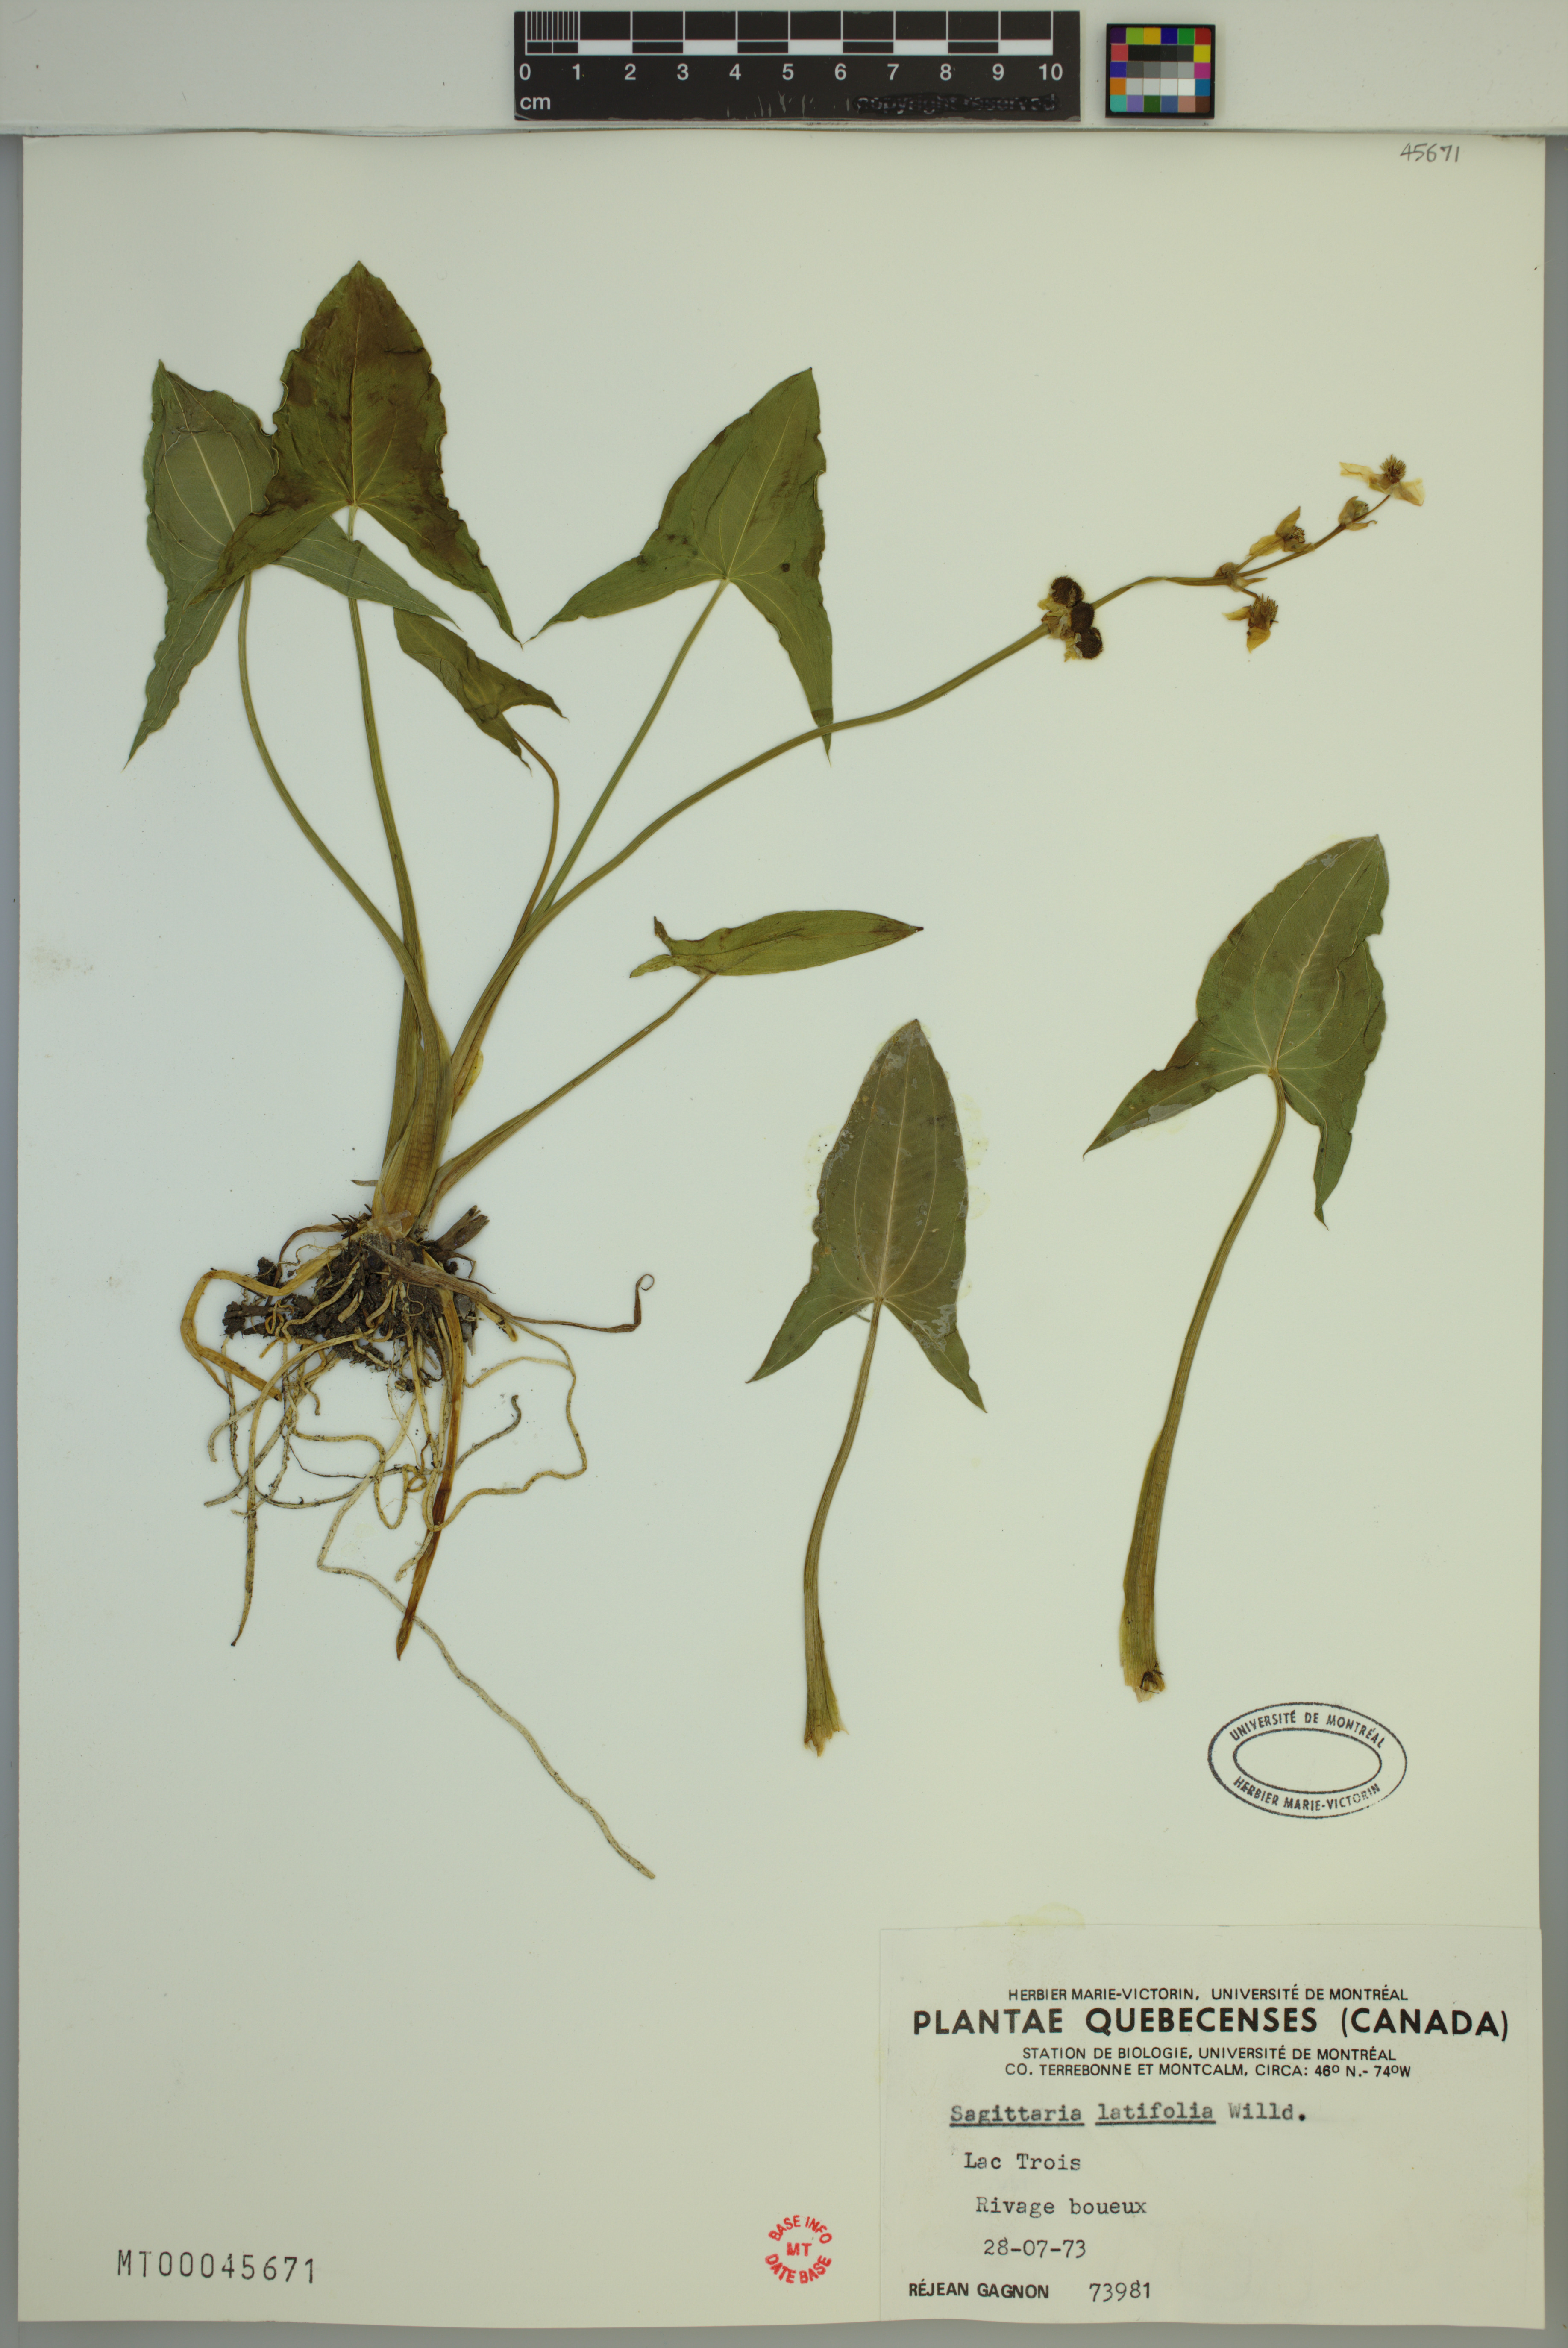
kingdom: Plantae
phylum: Tracheophyta
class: Liliopsida
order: Alismatales
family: Alismataceae
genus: Sagittaria
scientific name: Sagittaria latifolia
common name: Duck-potato
